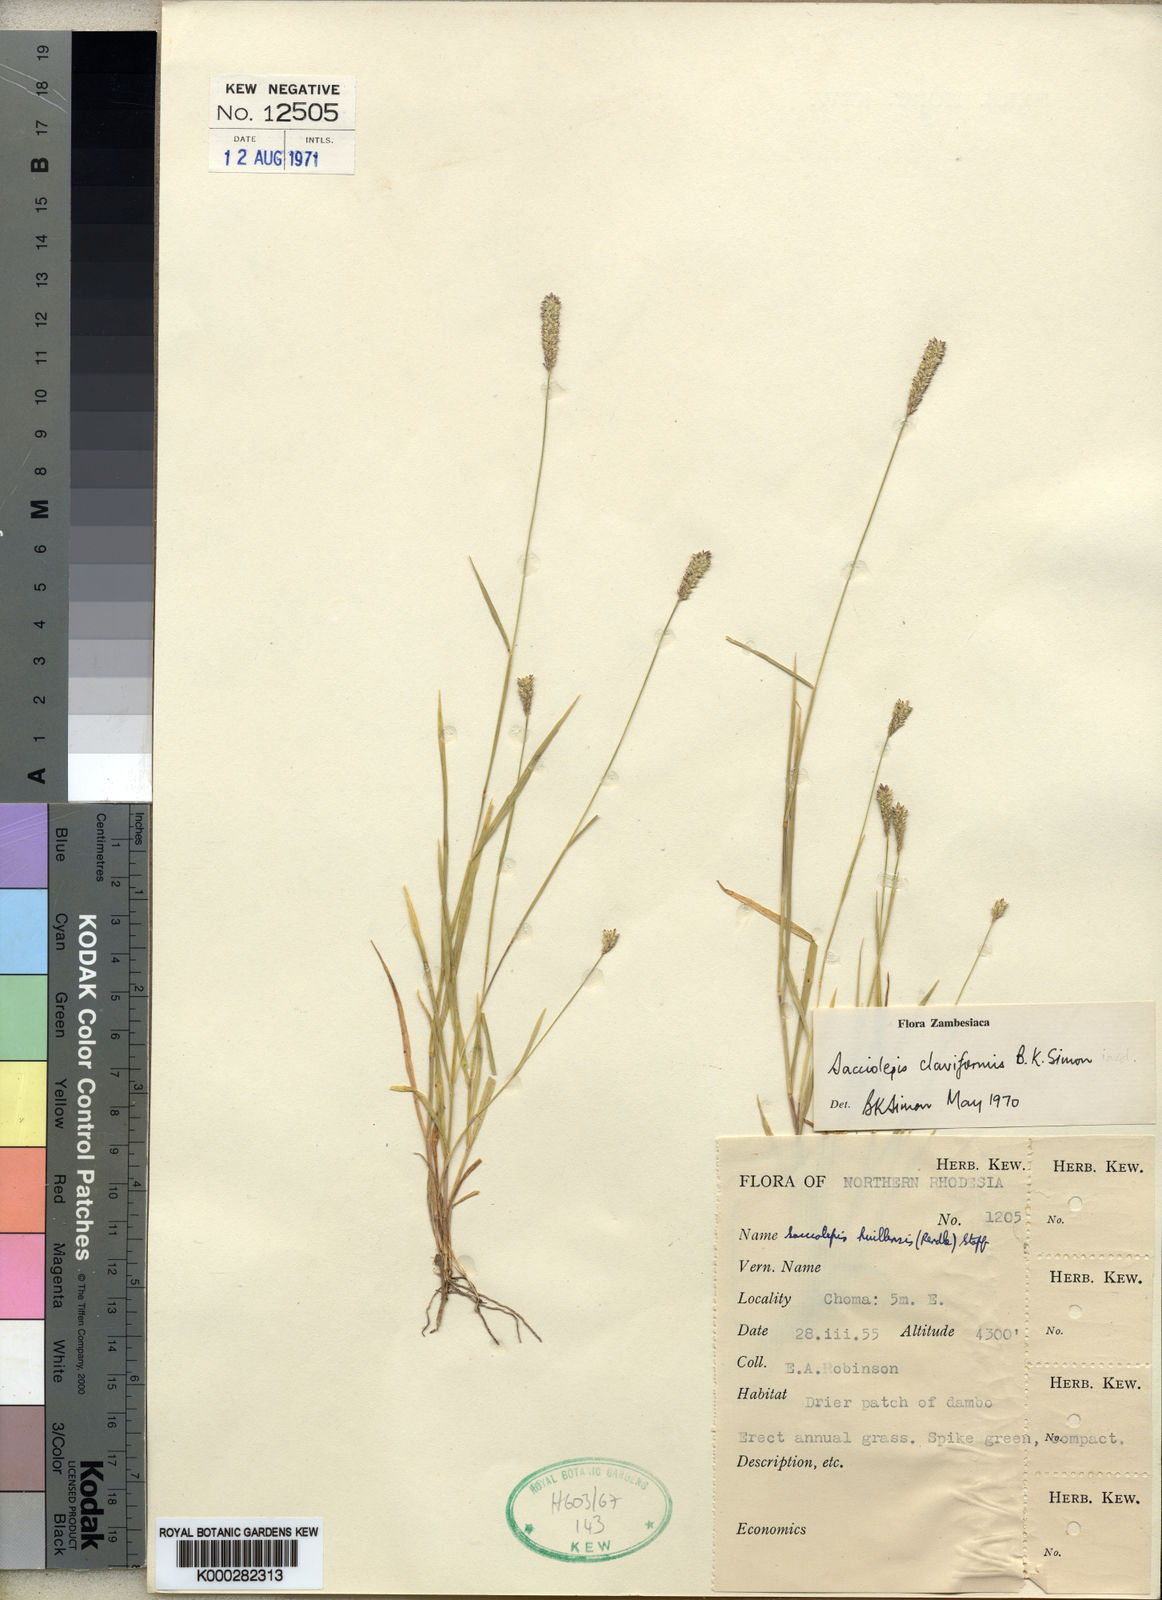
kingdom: Plantae
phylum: Tracheophyta
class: Liliopsida
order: Poales
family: Poaceae
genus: Sacciolepis
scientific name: Sacciolepis indica
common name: Glenwoodgrass
